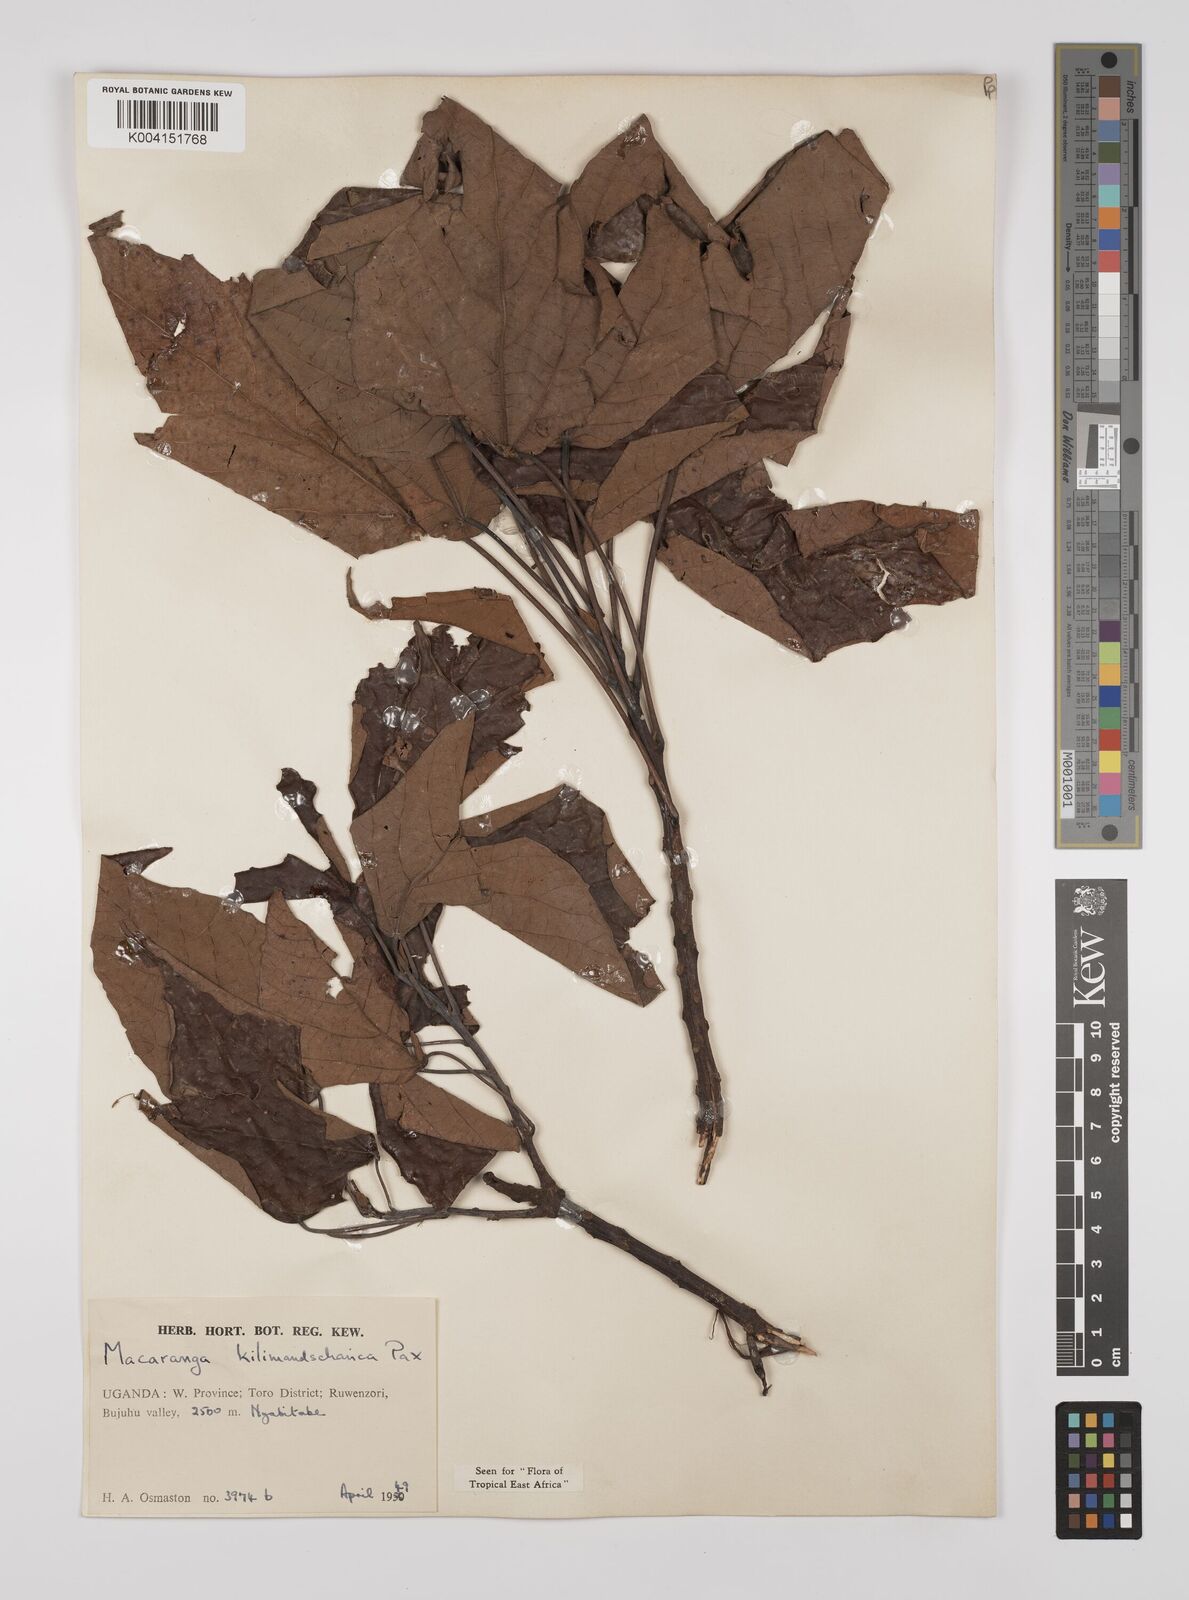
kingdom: Plantae
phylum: Tracheophyta
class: Magnoliopsida
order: Malpighiales
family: Euphorbiaceae
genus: Macaranga
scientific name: Macaranga kilimandscharica
